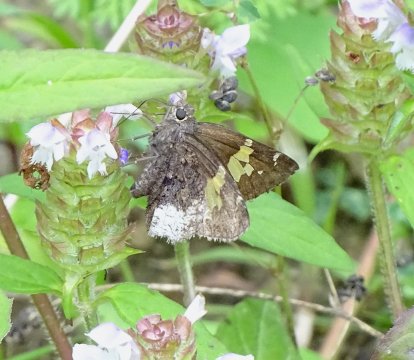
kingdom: Animalia
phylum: Arthropoda
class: Insecta
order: Lepidoptera
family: Hesperiidae
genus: Achalarus
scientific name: Achalarus lyciades
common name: Hoary Edge
